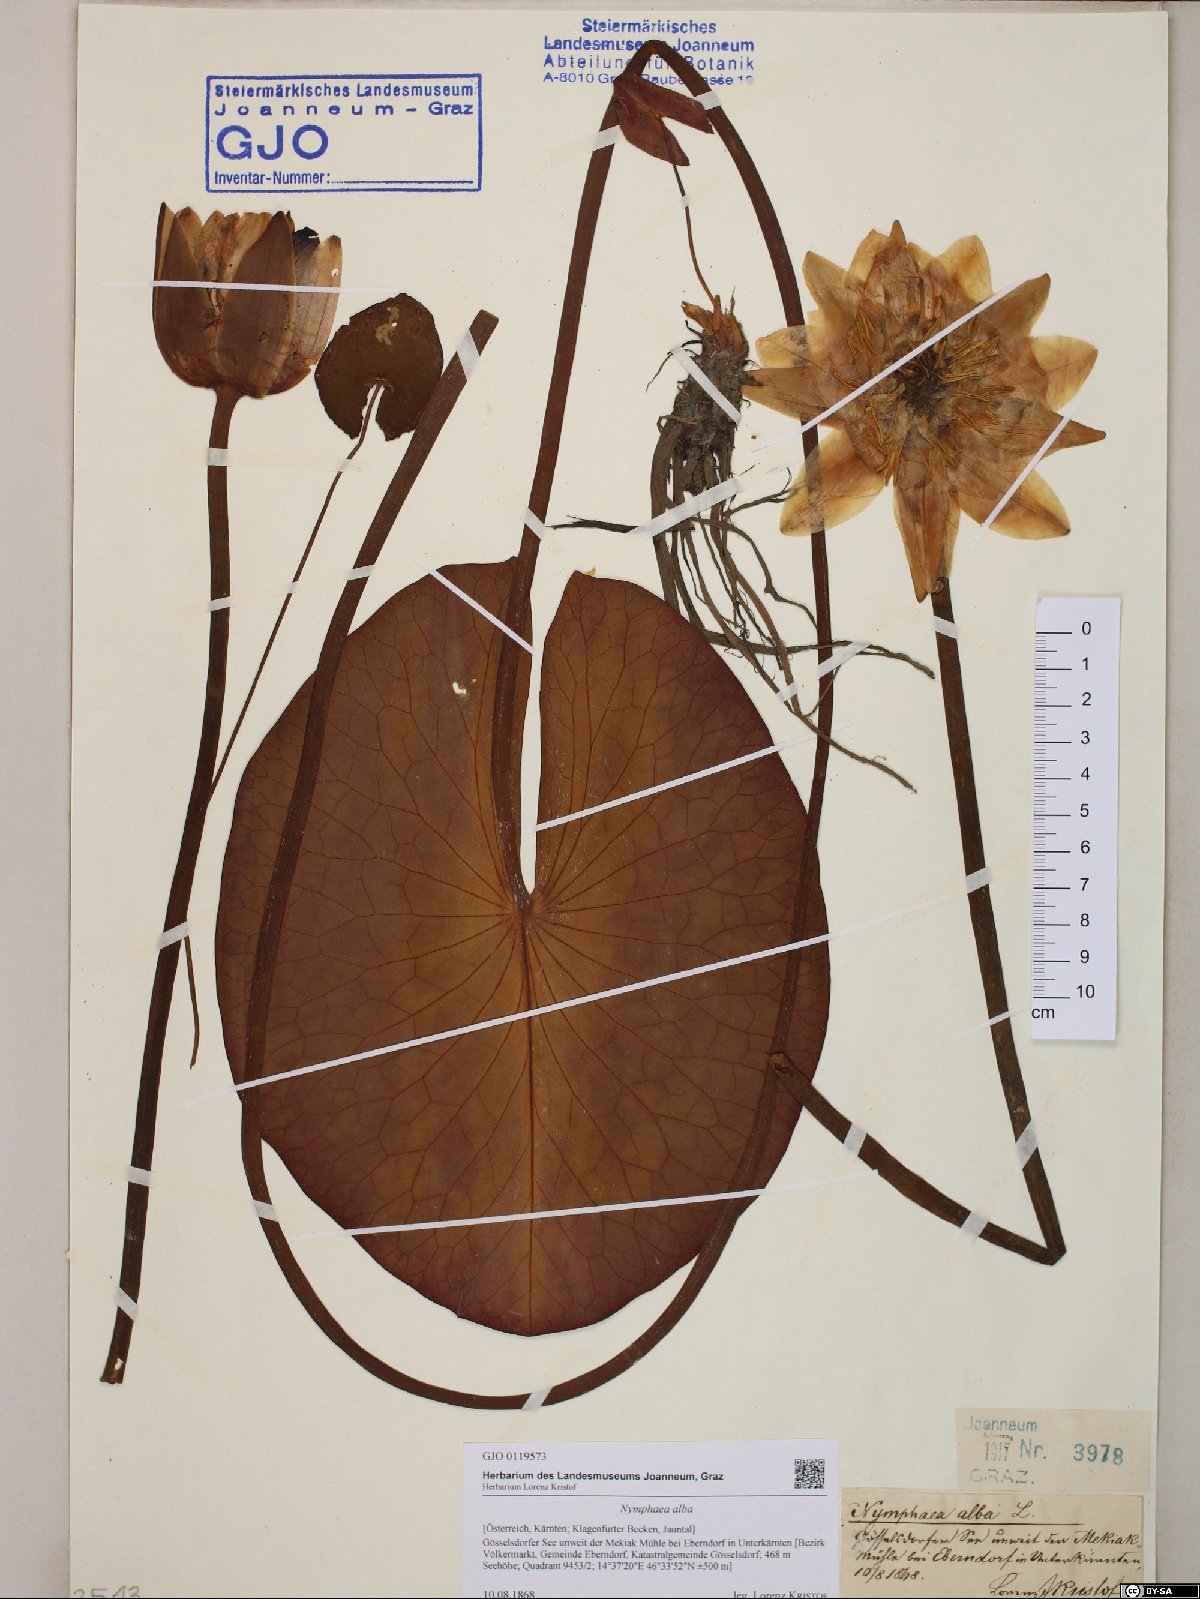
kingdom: Plantae
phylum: Tracheophyta
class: Magnoliopsida
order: Nymphaeales
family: Nymphaeaceae
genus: Nymphaea
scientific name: Nymphaea alba
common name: White water-lily
